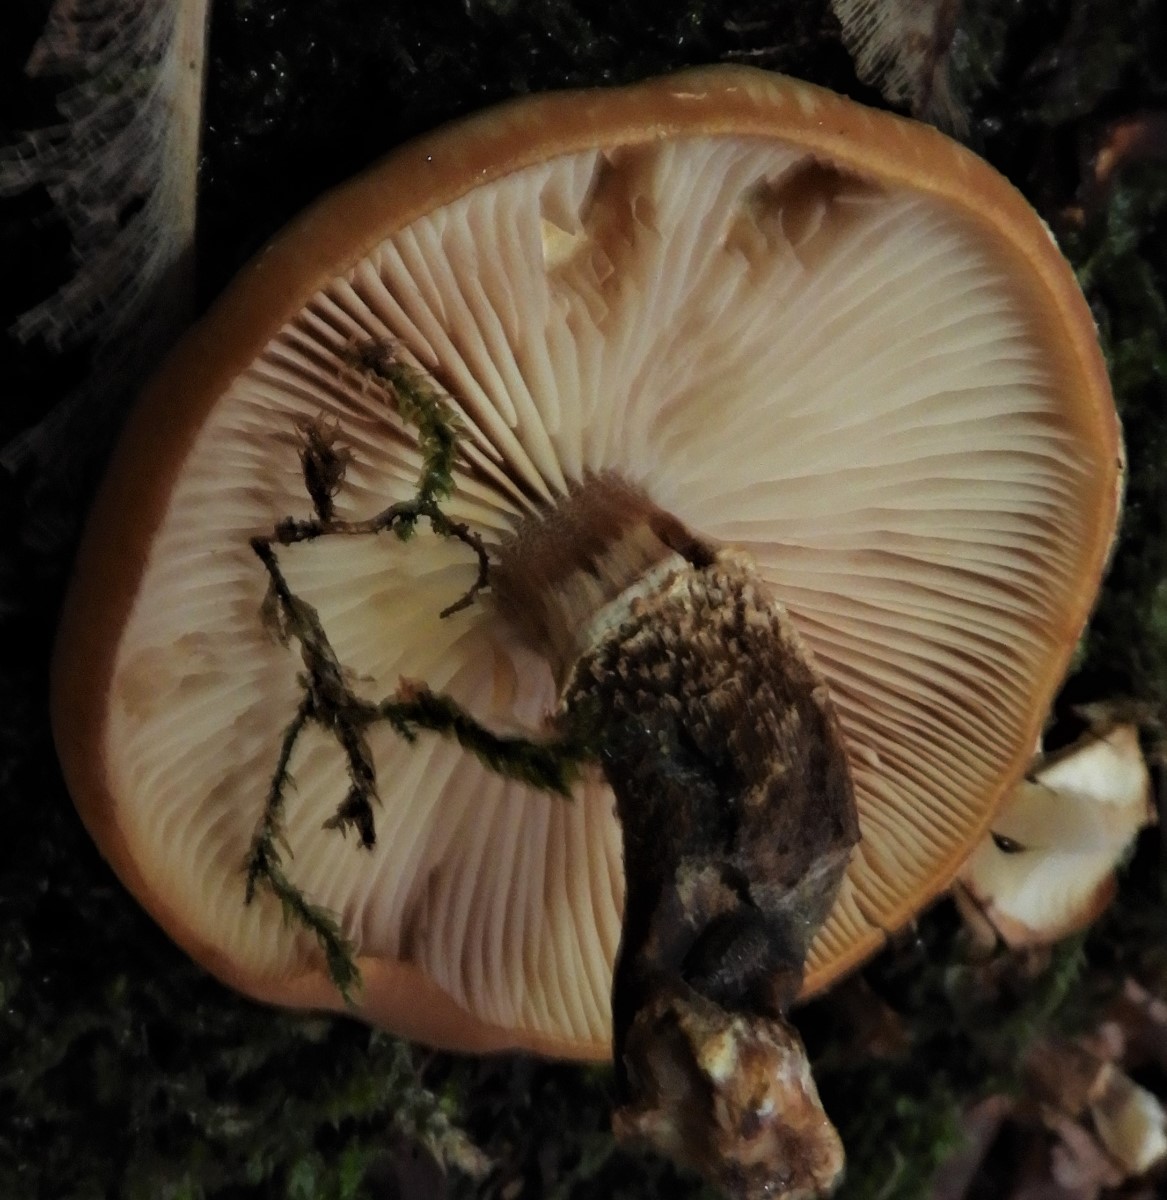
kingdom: Fungi
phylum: Basidiomycota
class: Agaricomycetes
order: Agaricales
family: Strophariaceae
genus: Kuehneromyces
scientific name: Kuehneromyces mutabilis
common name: foranderlig skælhat
